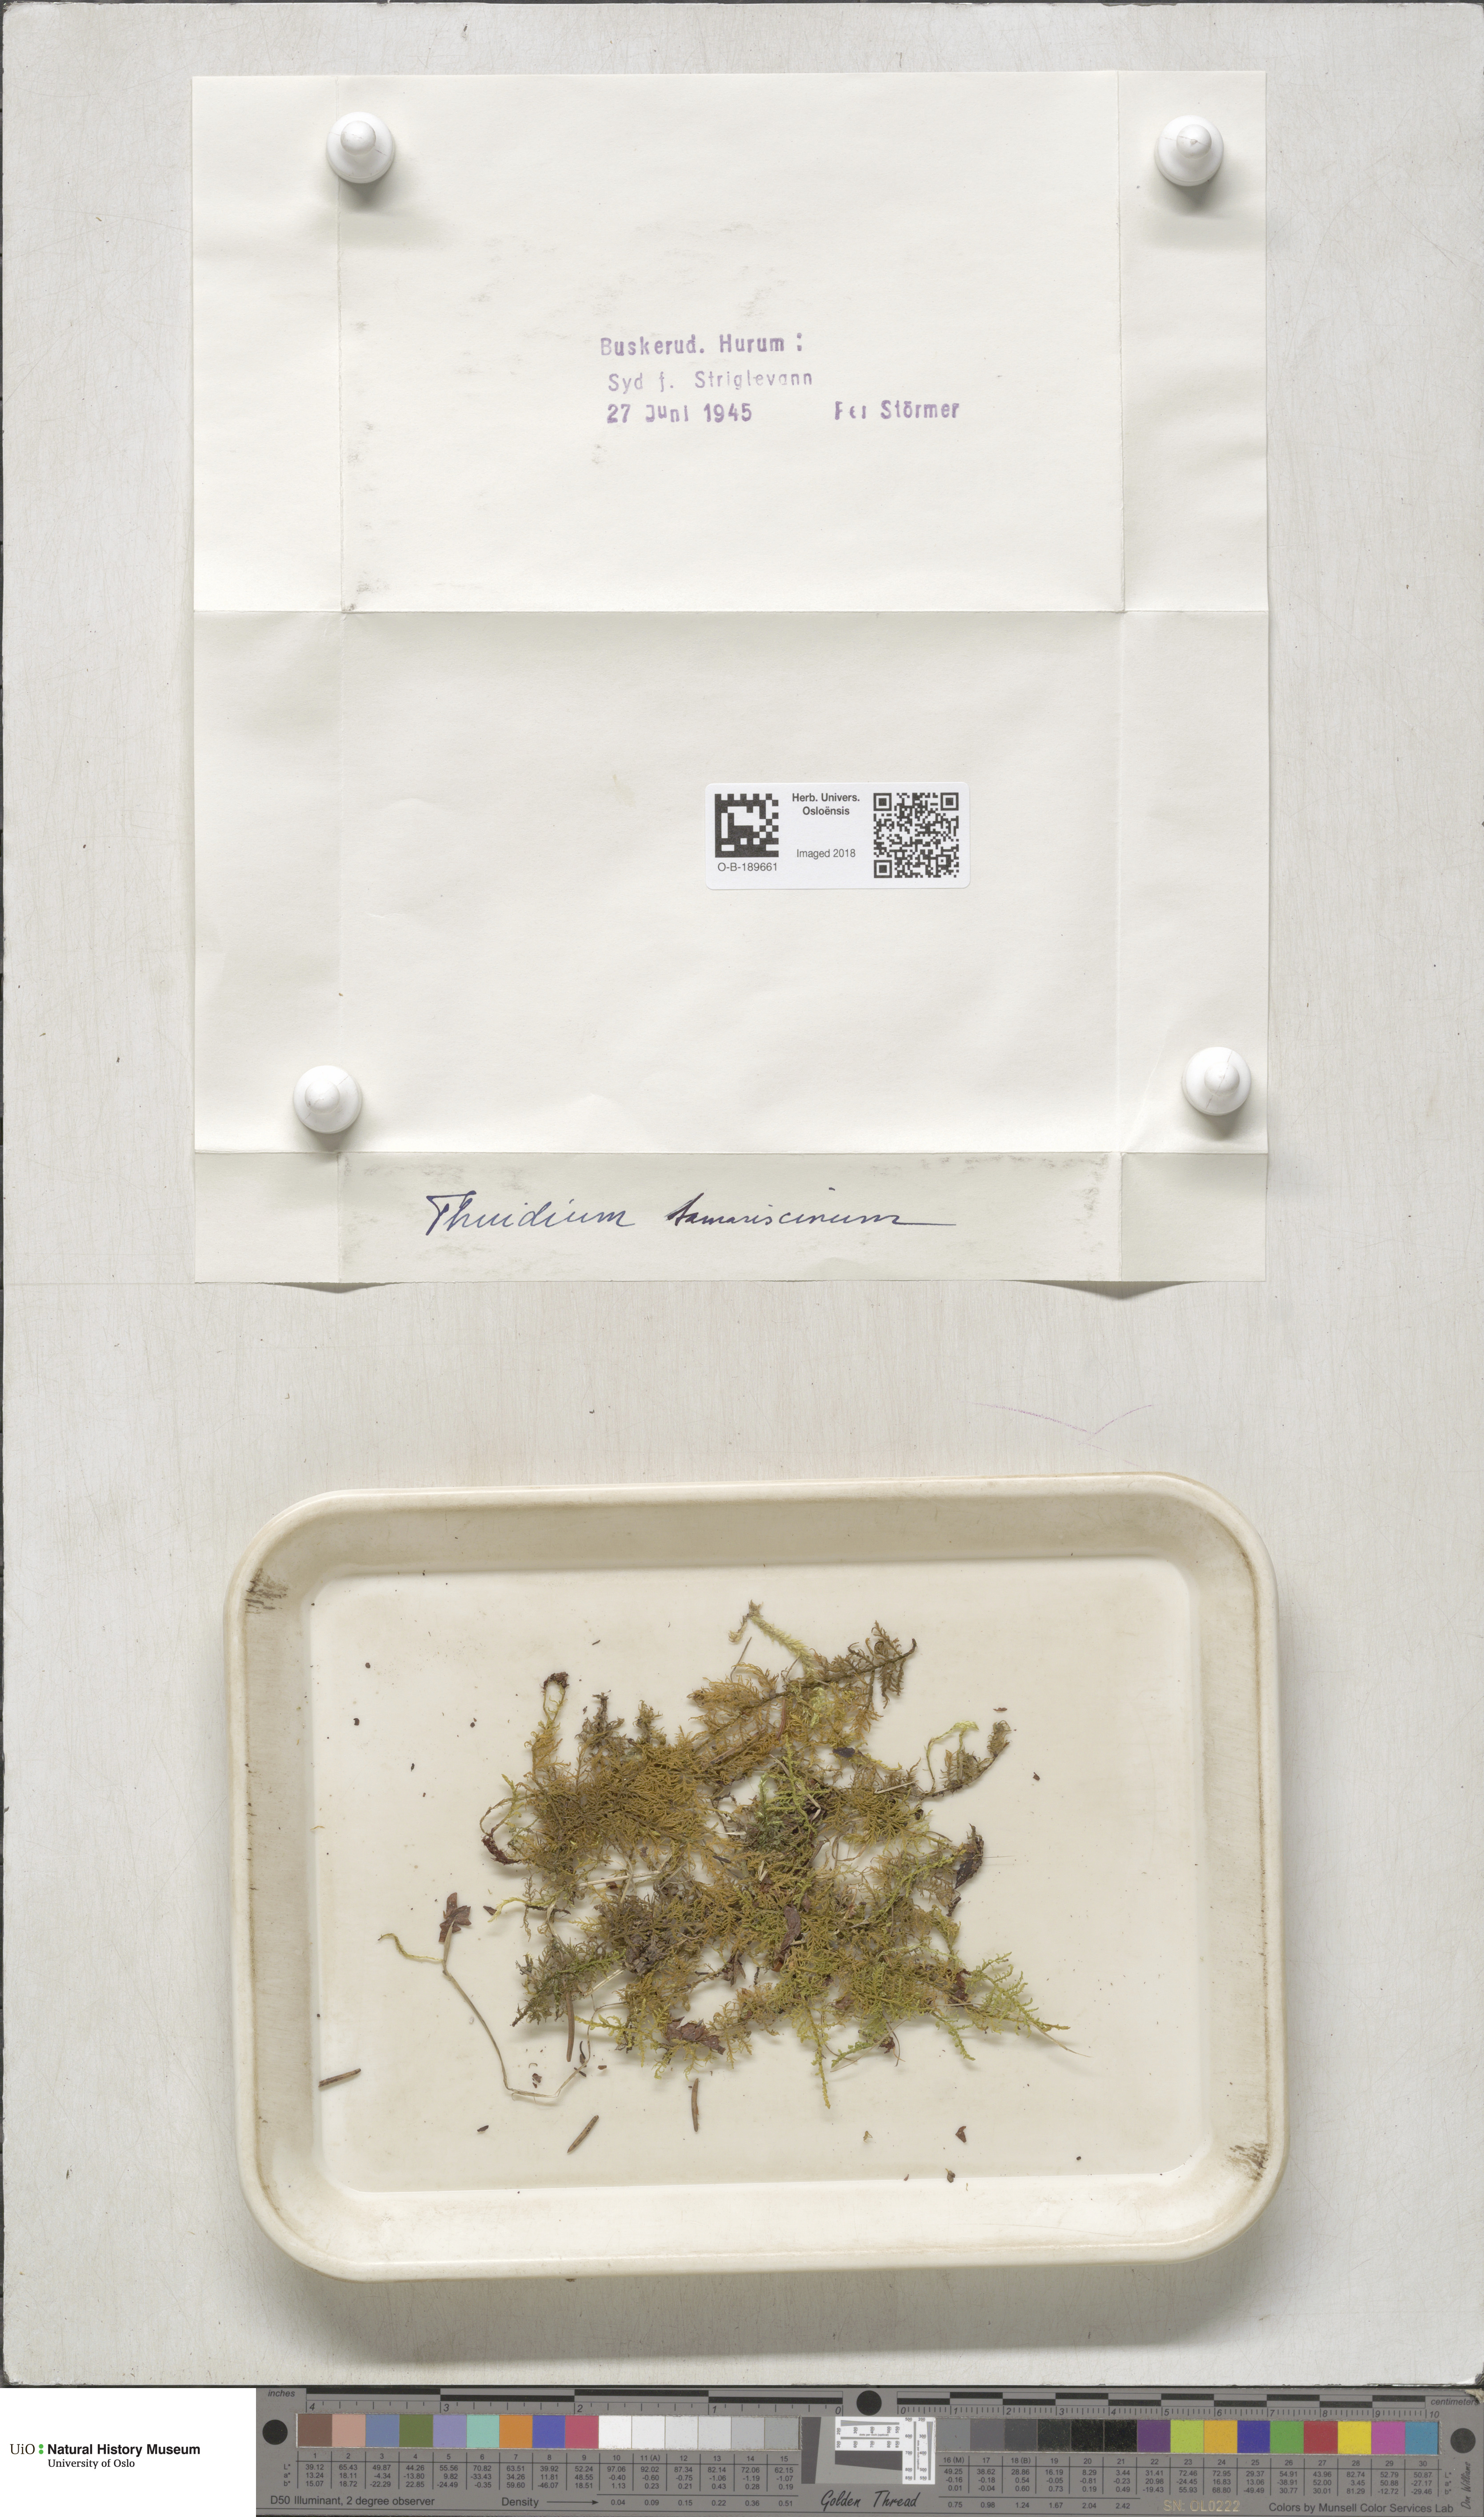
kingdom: Plantae
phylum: Bryophyta
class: Bryopsida
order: Hypnales
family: Thuidiaceae
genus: Thuidium
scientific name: Thuidium tamariscinum
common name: Common tamarisk-moss
